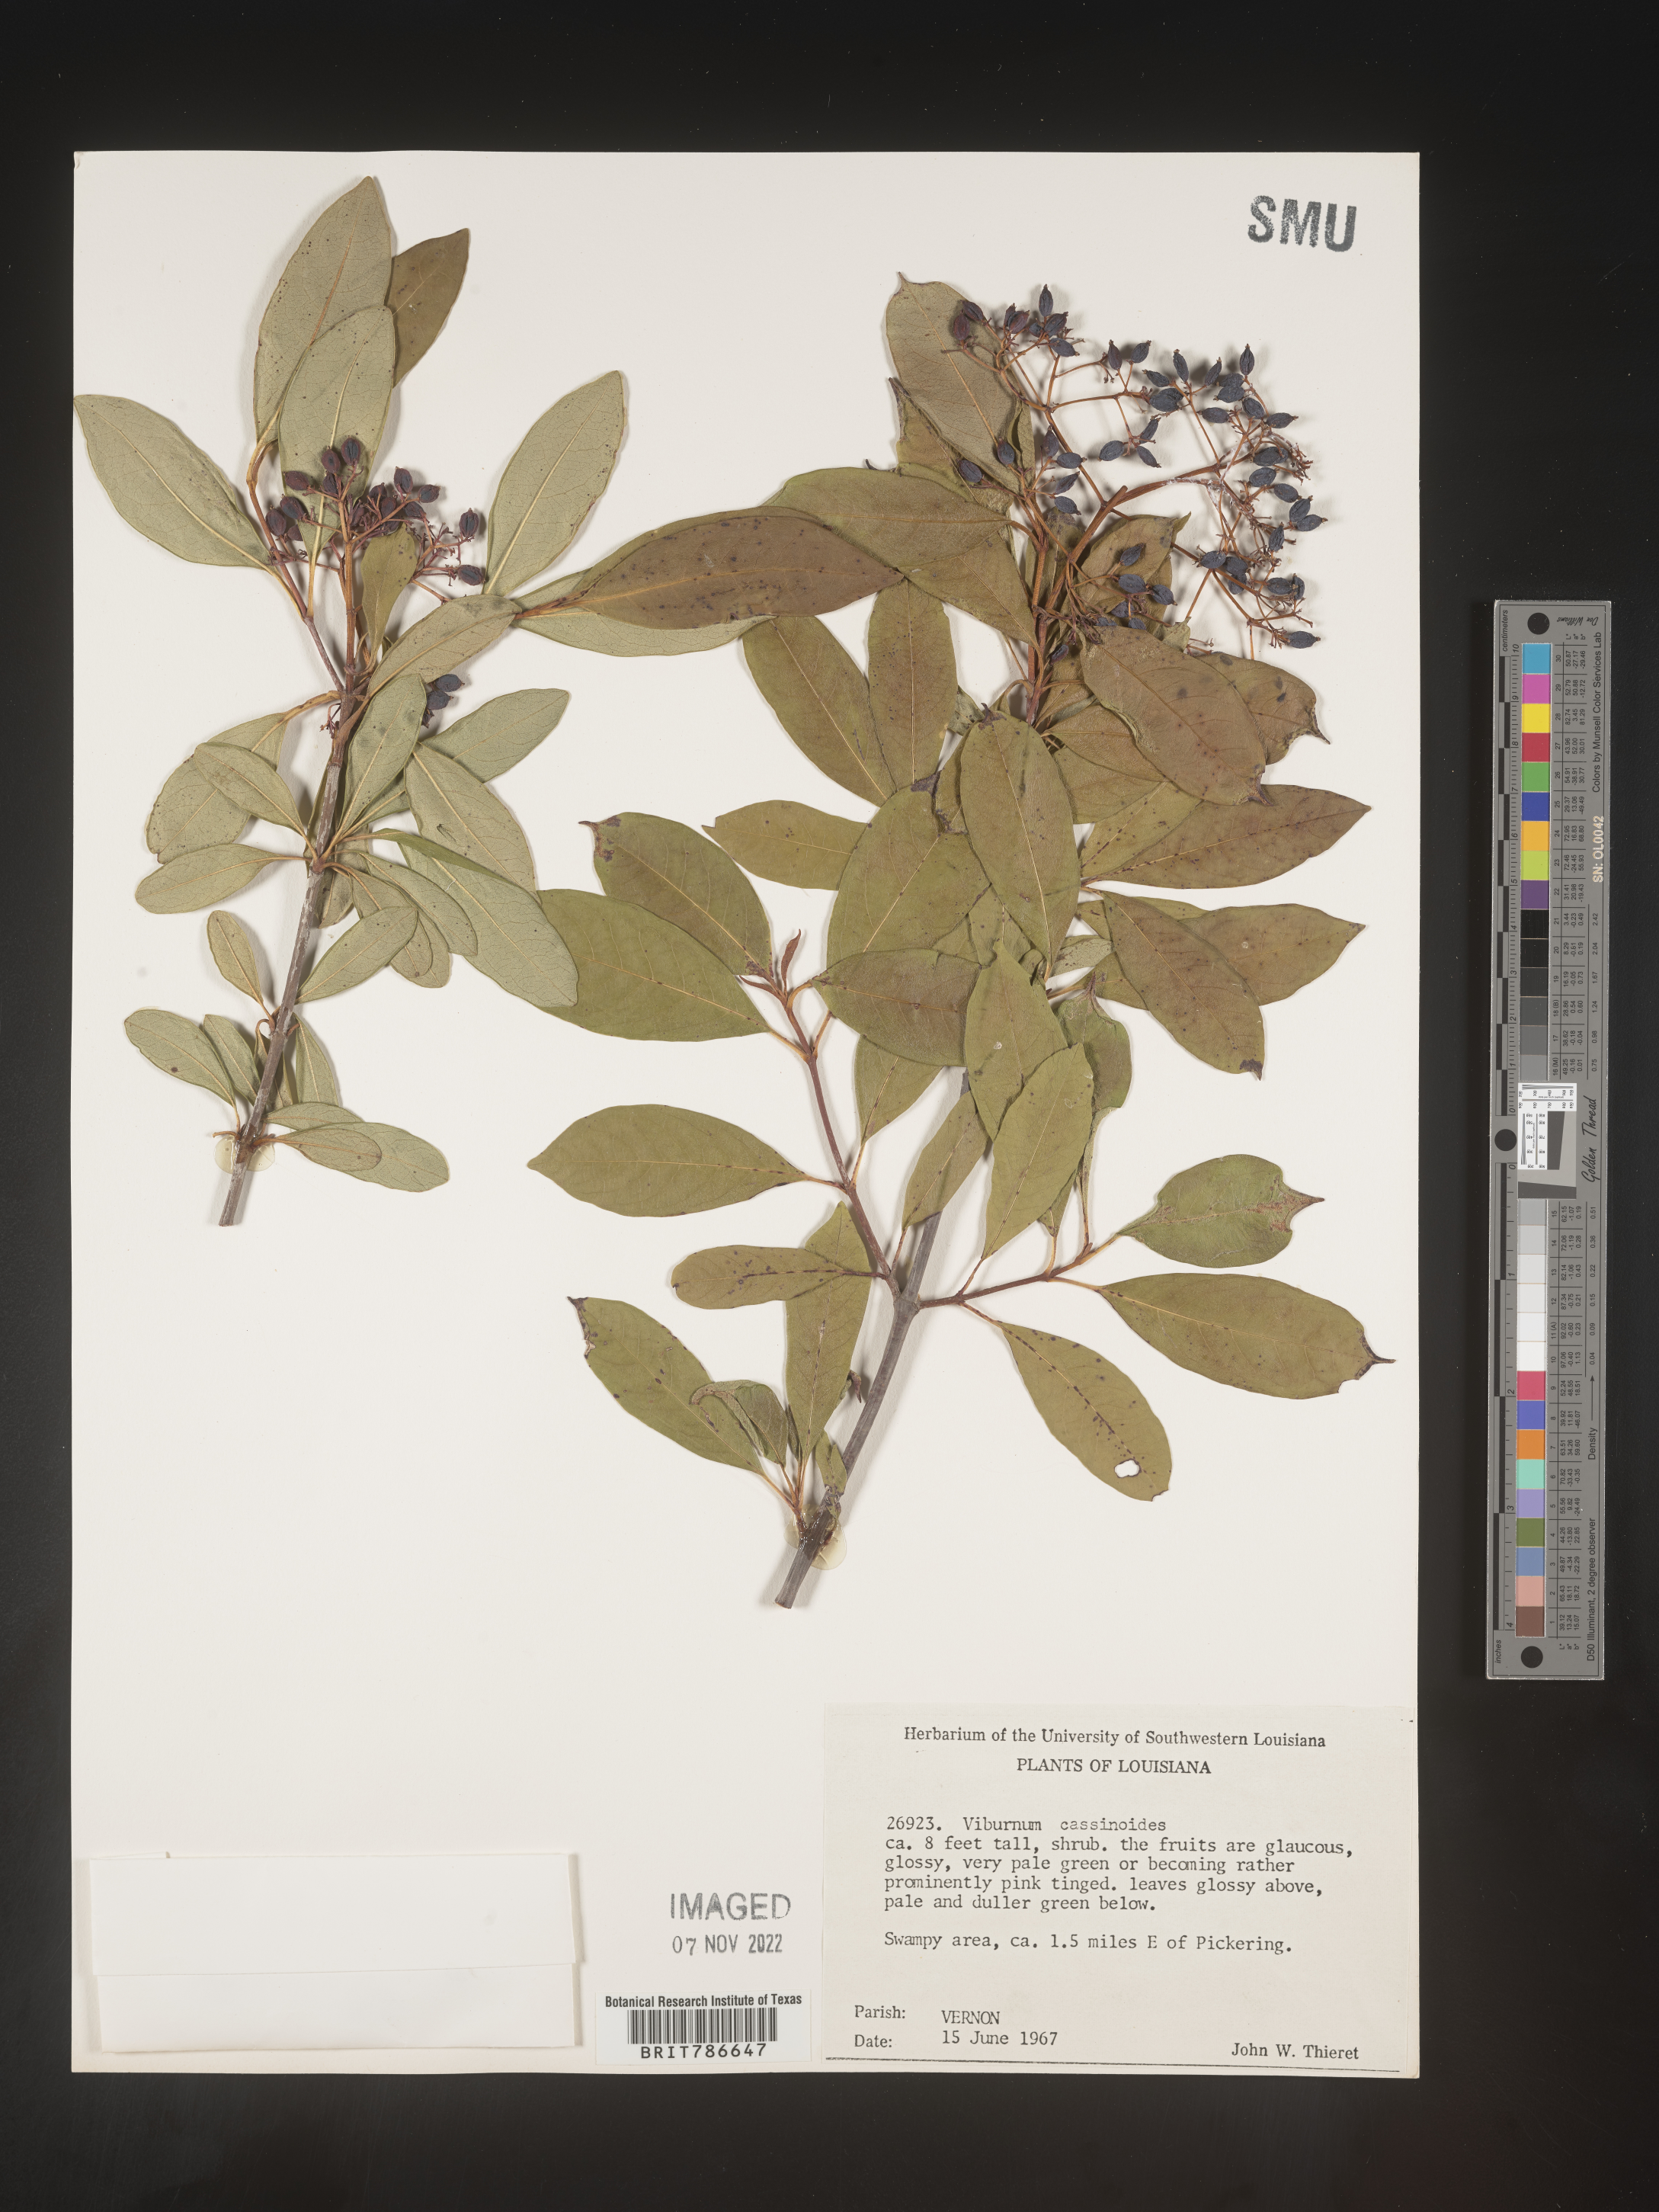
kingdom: Plantae
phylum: Tracheophyta
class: Magnoliopsida
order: Dipsacales
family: Viburnaceae
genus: Viburnum
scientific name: Viburnum cassinoides
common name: Swamp haw
